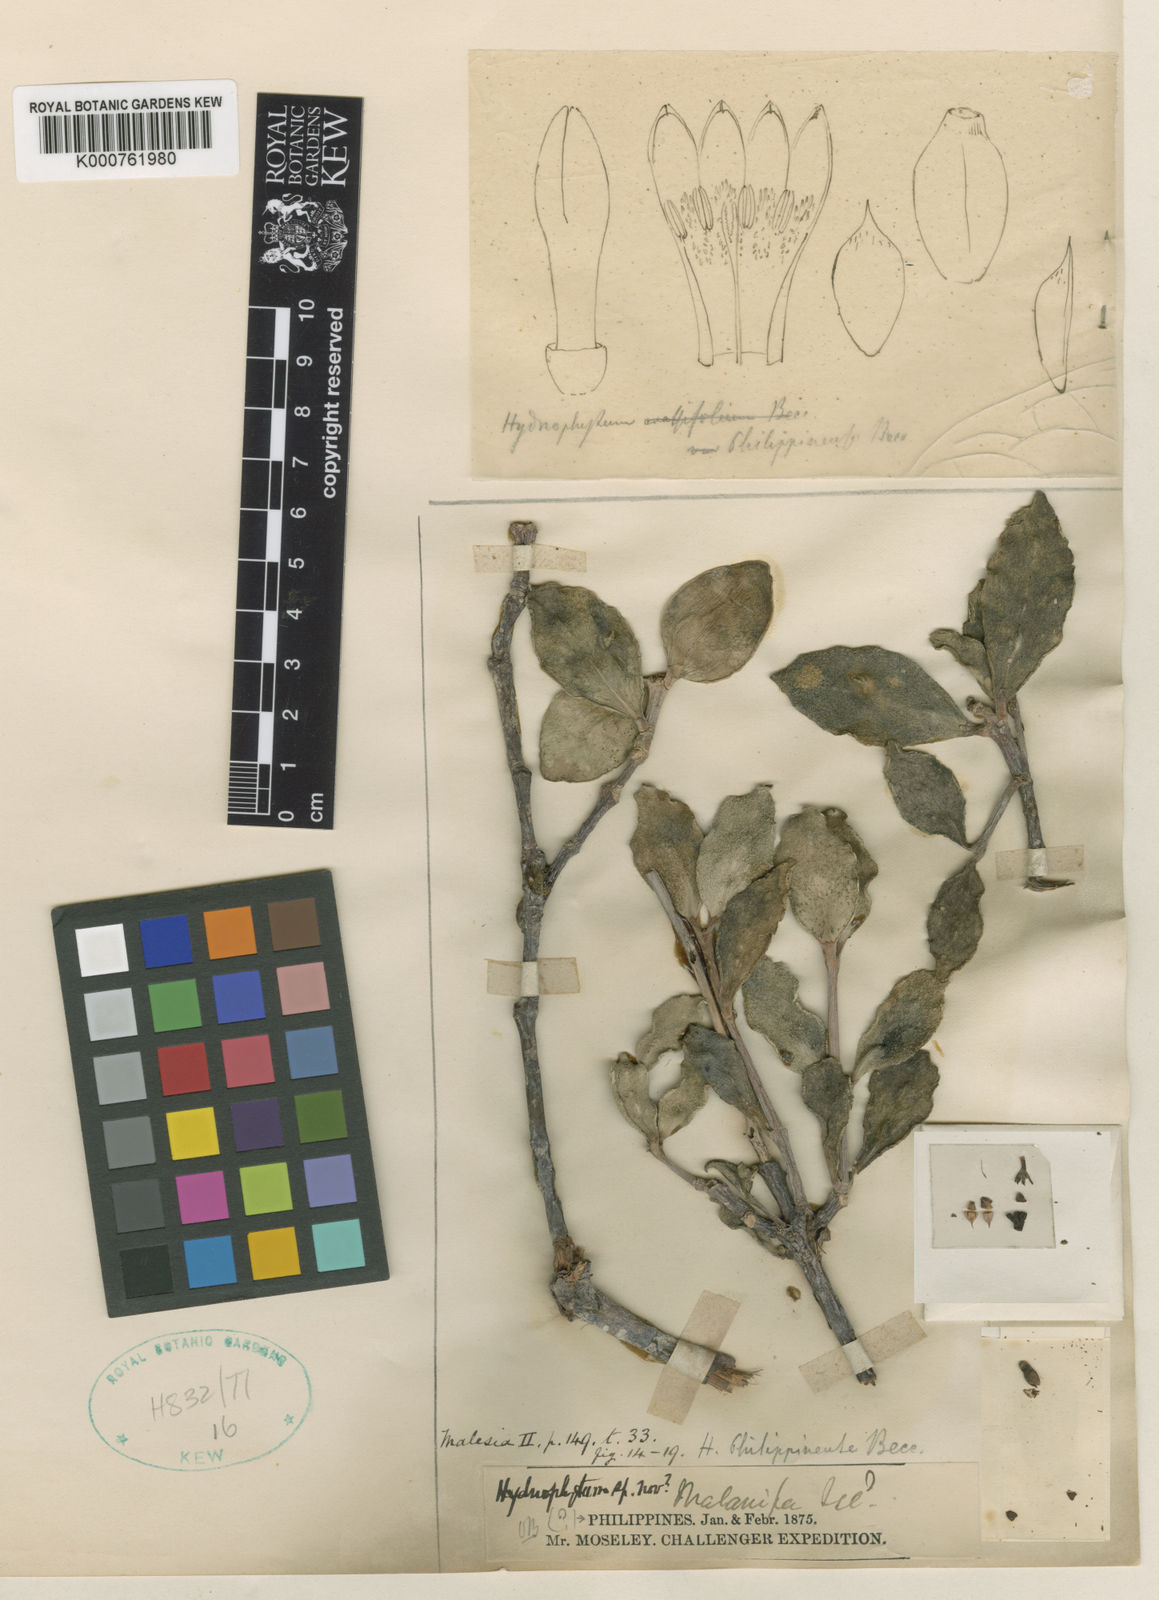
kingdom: Plantae
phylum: Tracheophyta
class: Magnoliopsida
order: Gentianales
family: Rubiaceae
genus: Hydnophytum
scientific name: Hydnophytum moseleyanum
